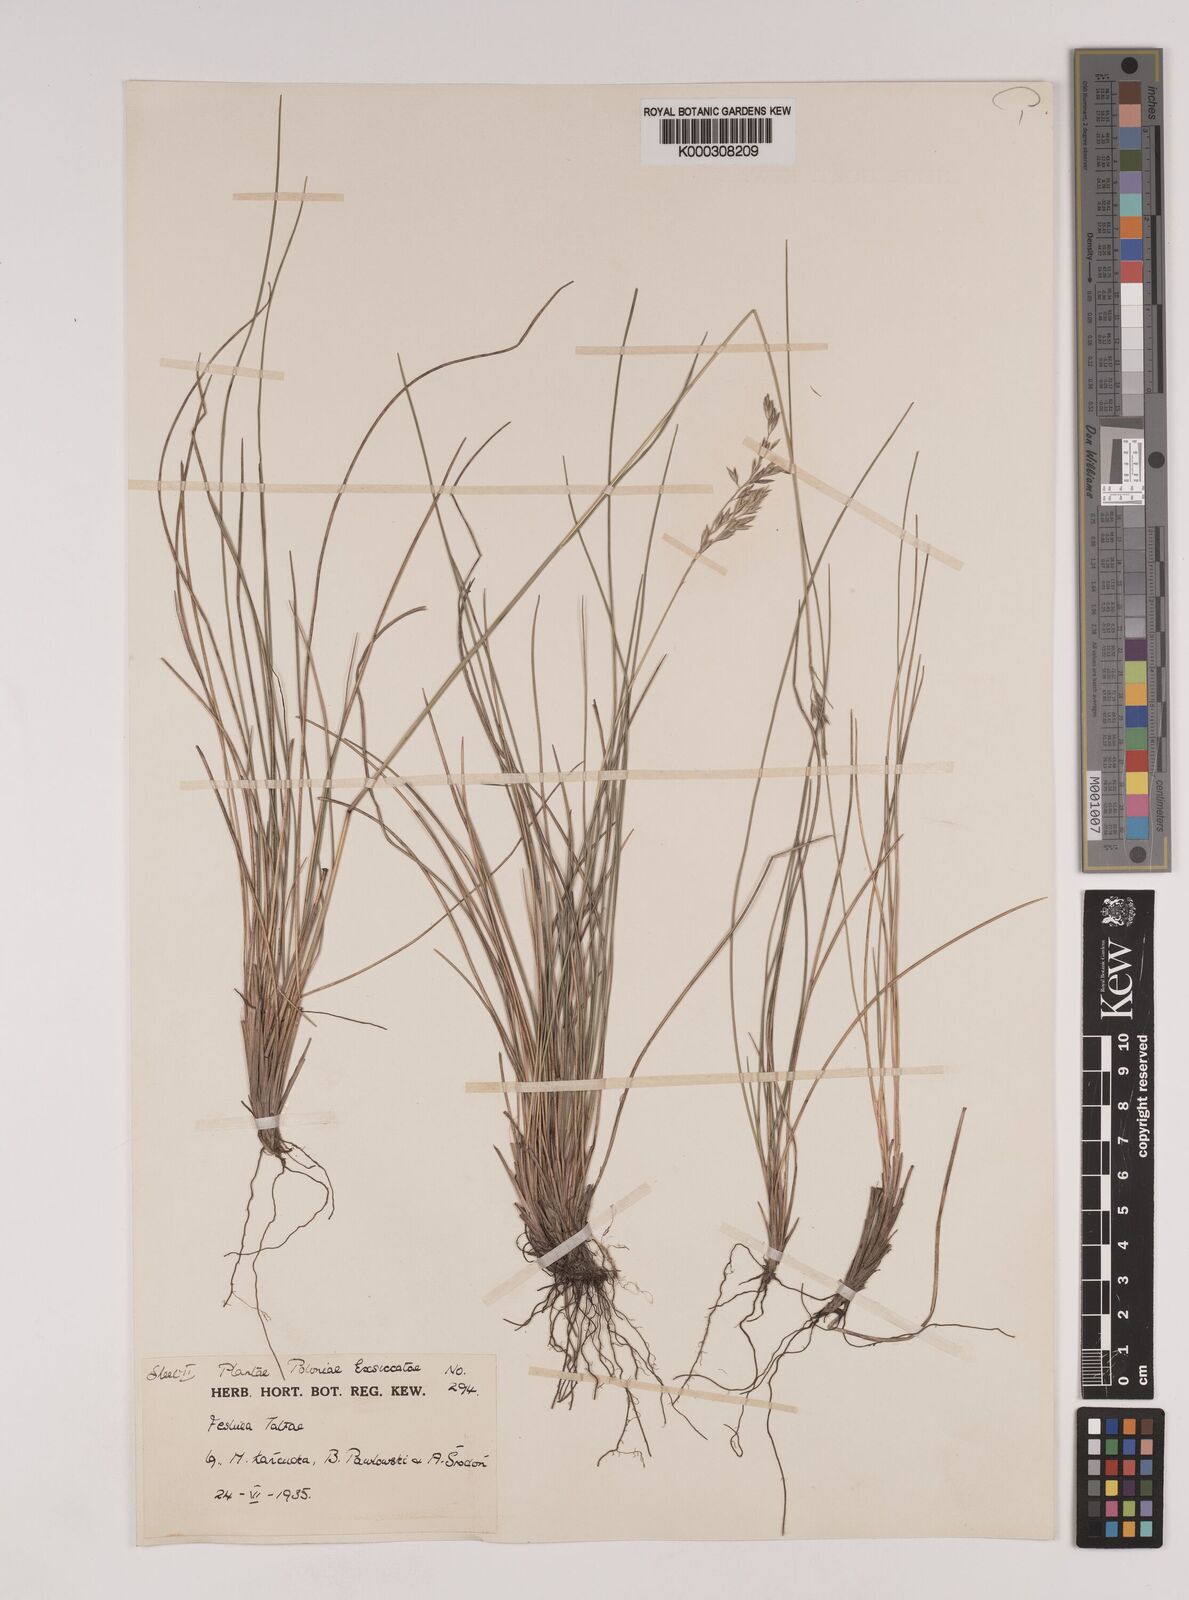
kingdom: Plantae
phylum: Tracheophyta
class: Liliopsida
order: Poales
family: Poaceae
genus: Festuca
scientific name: Festuca
